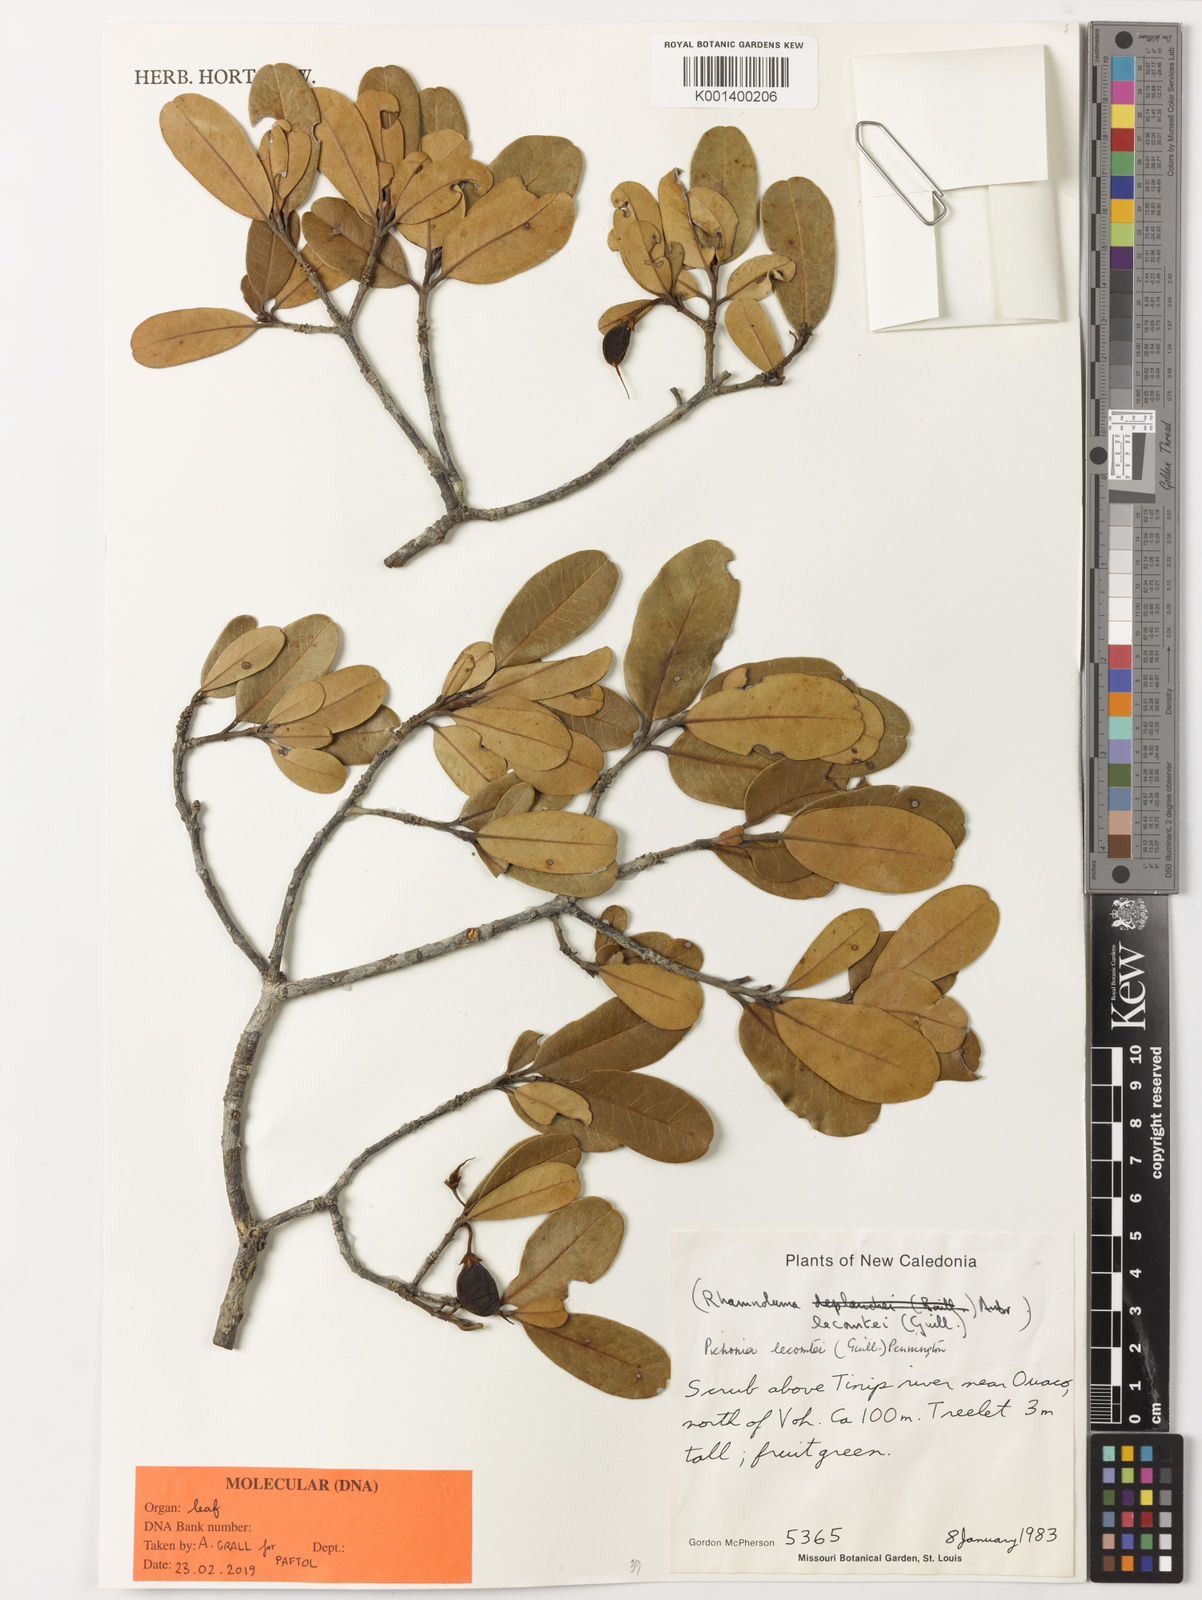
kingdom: Plantae
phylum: Tracheophyta
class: Magnoliopsida
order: Ericales
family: Sapotaceae
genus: Pichonia
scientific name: Pichonia lecomtei
